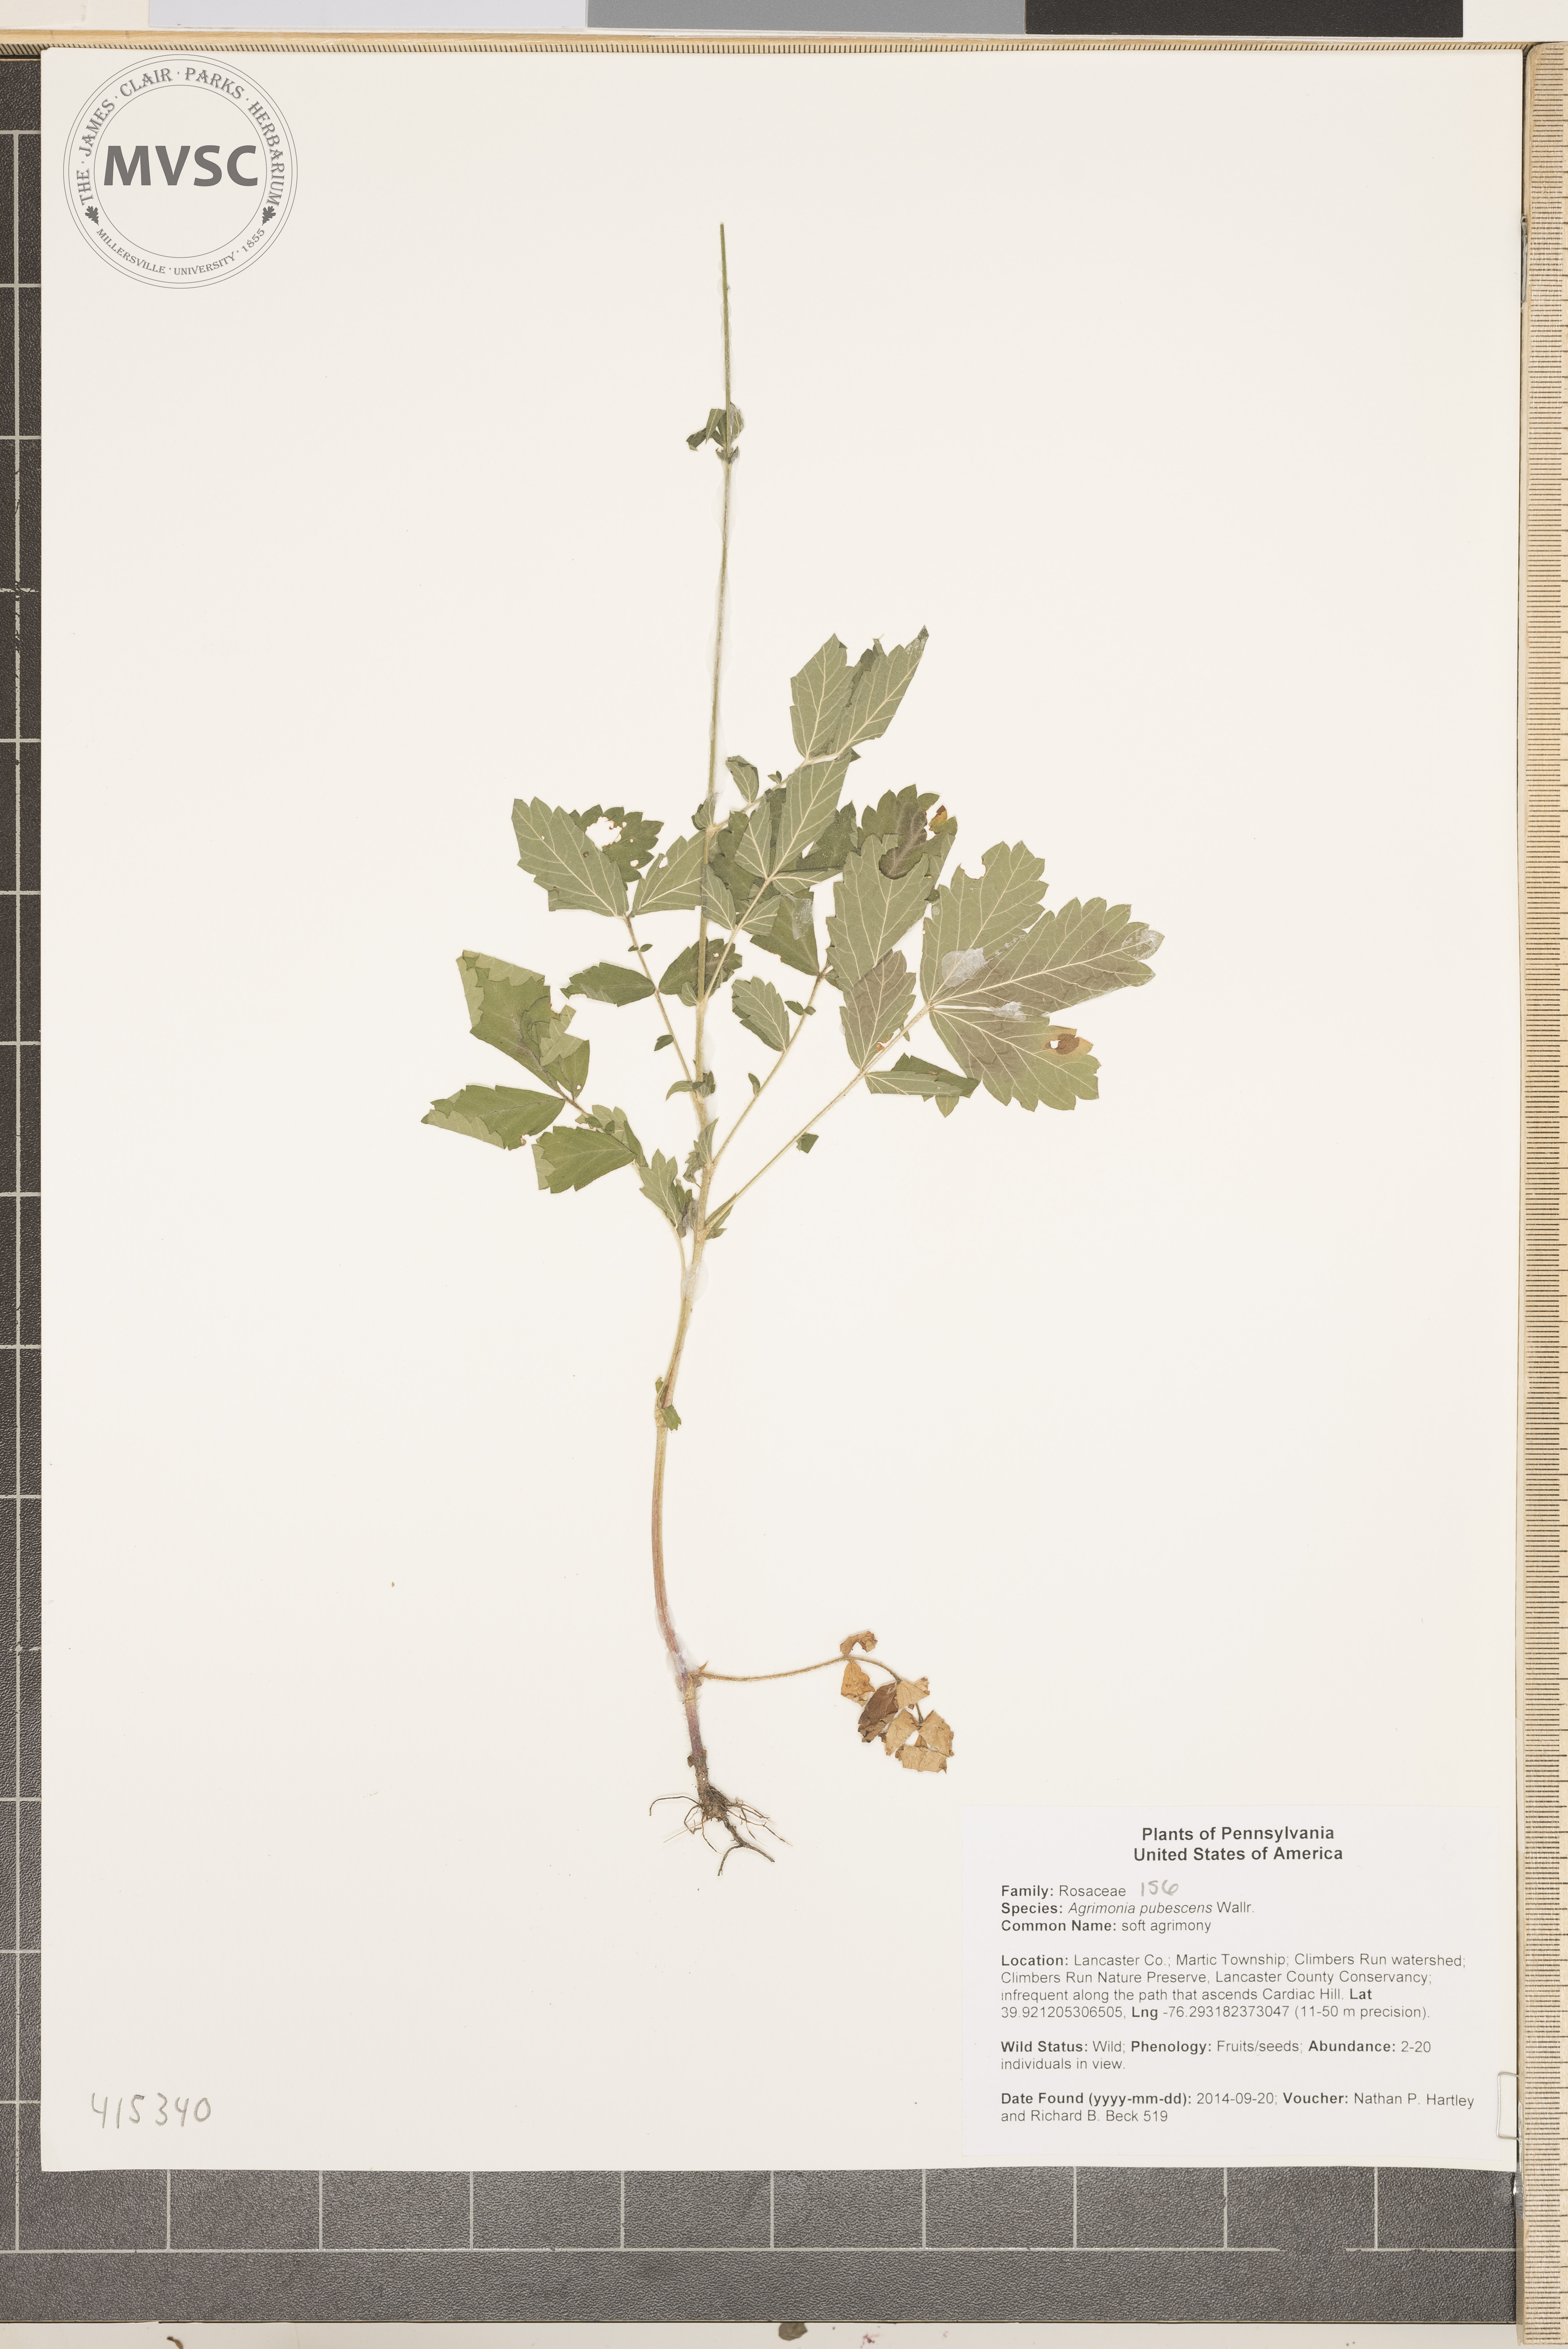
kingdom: Plantae
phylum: Tracheophyta
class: Magnoliopsida
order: Rosales
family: Rosaceae
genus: Agrimonia
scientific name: Agrimonia pubescens
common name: soft agrimony
